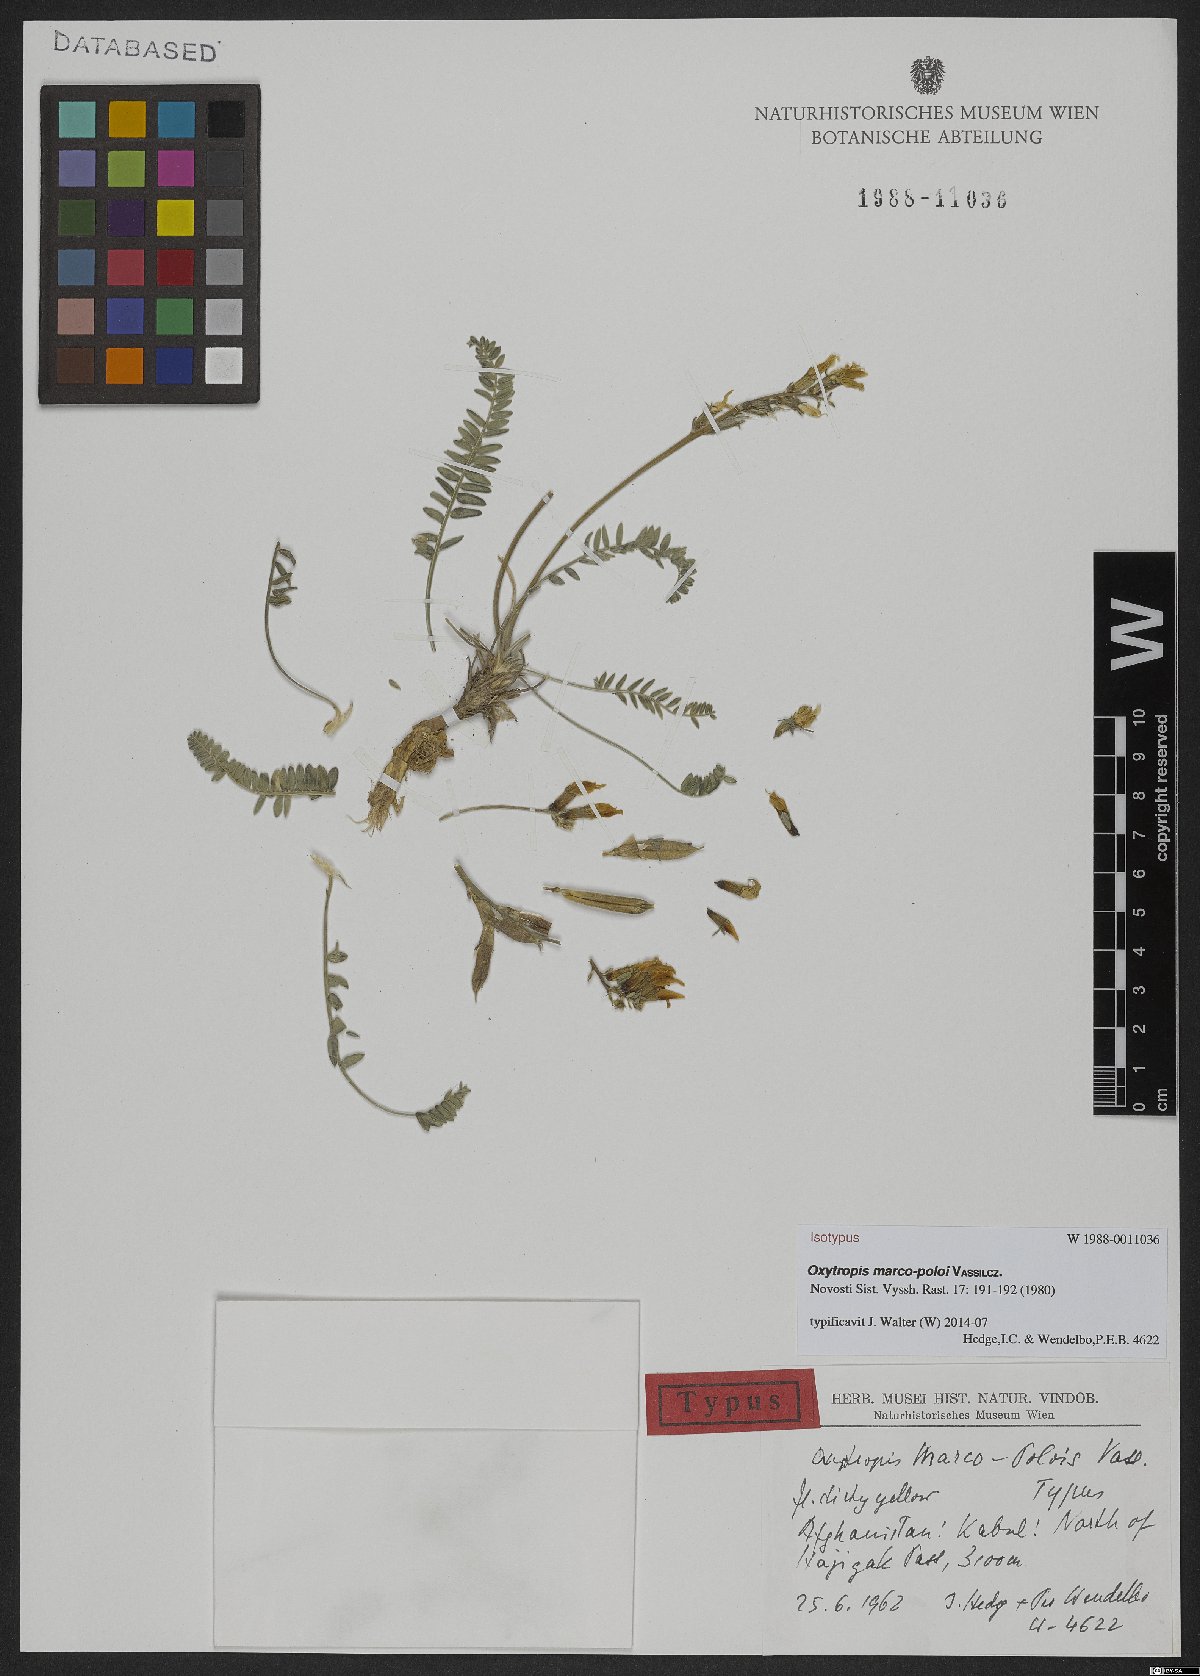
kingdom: Plantae
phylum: Tracheophyta
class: Magnoliopsida
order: Fabales
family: Fabaceae
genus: Oxytropis
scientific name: Oxytropis marco-poloi
